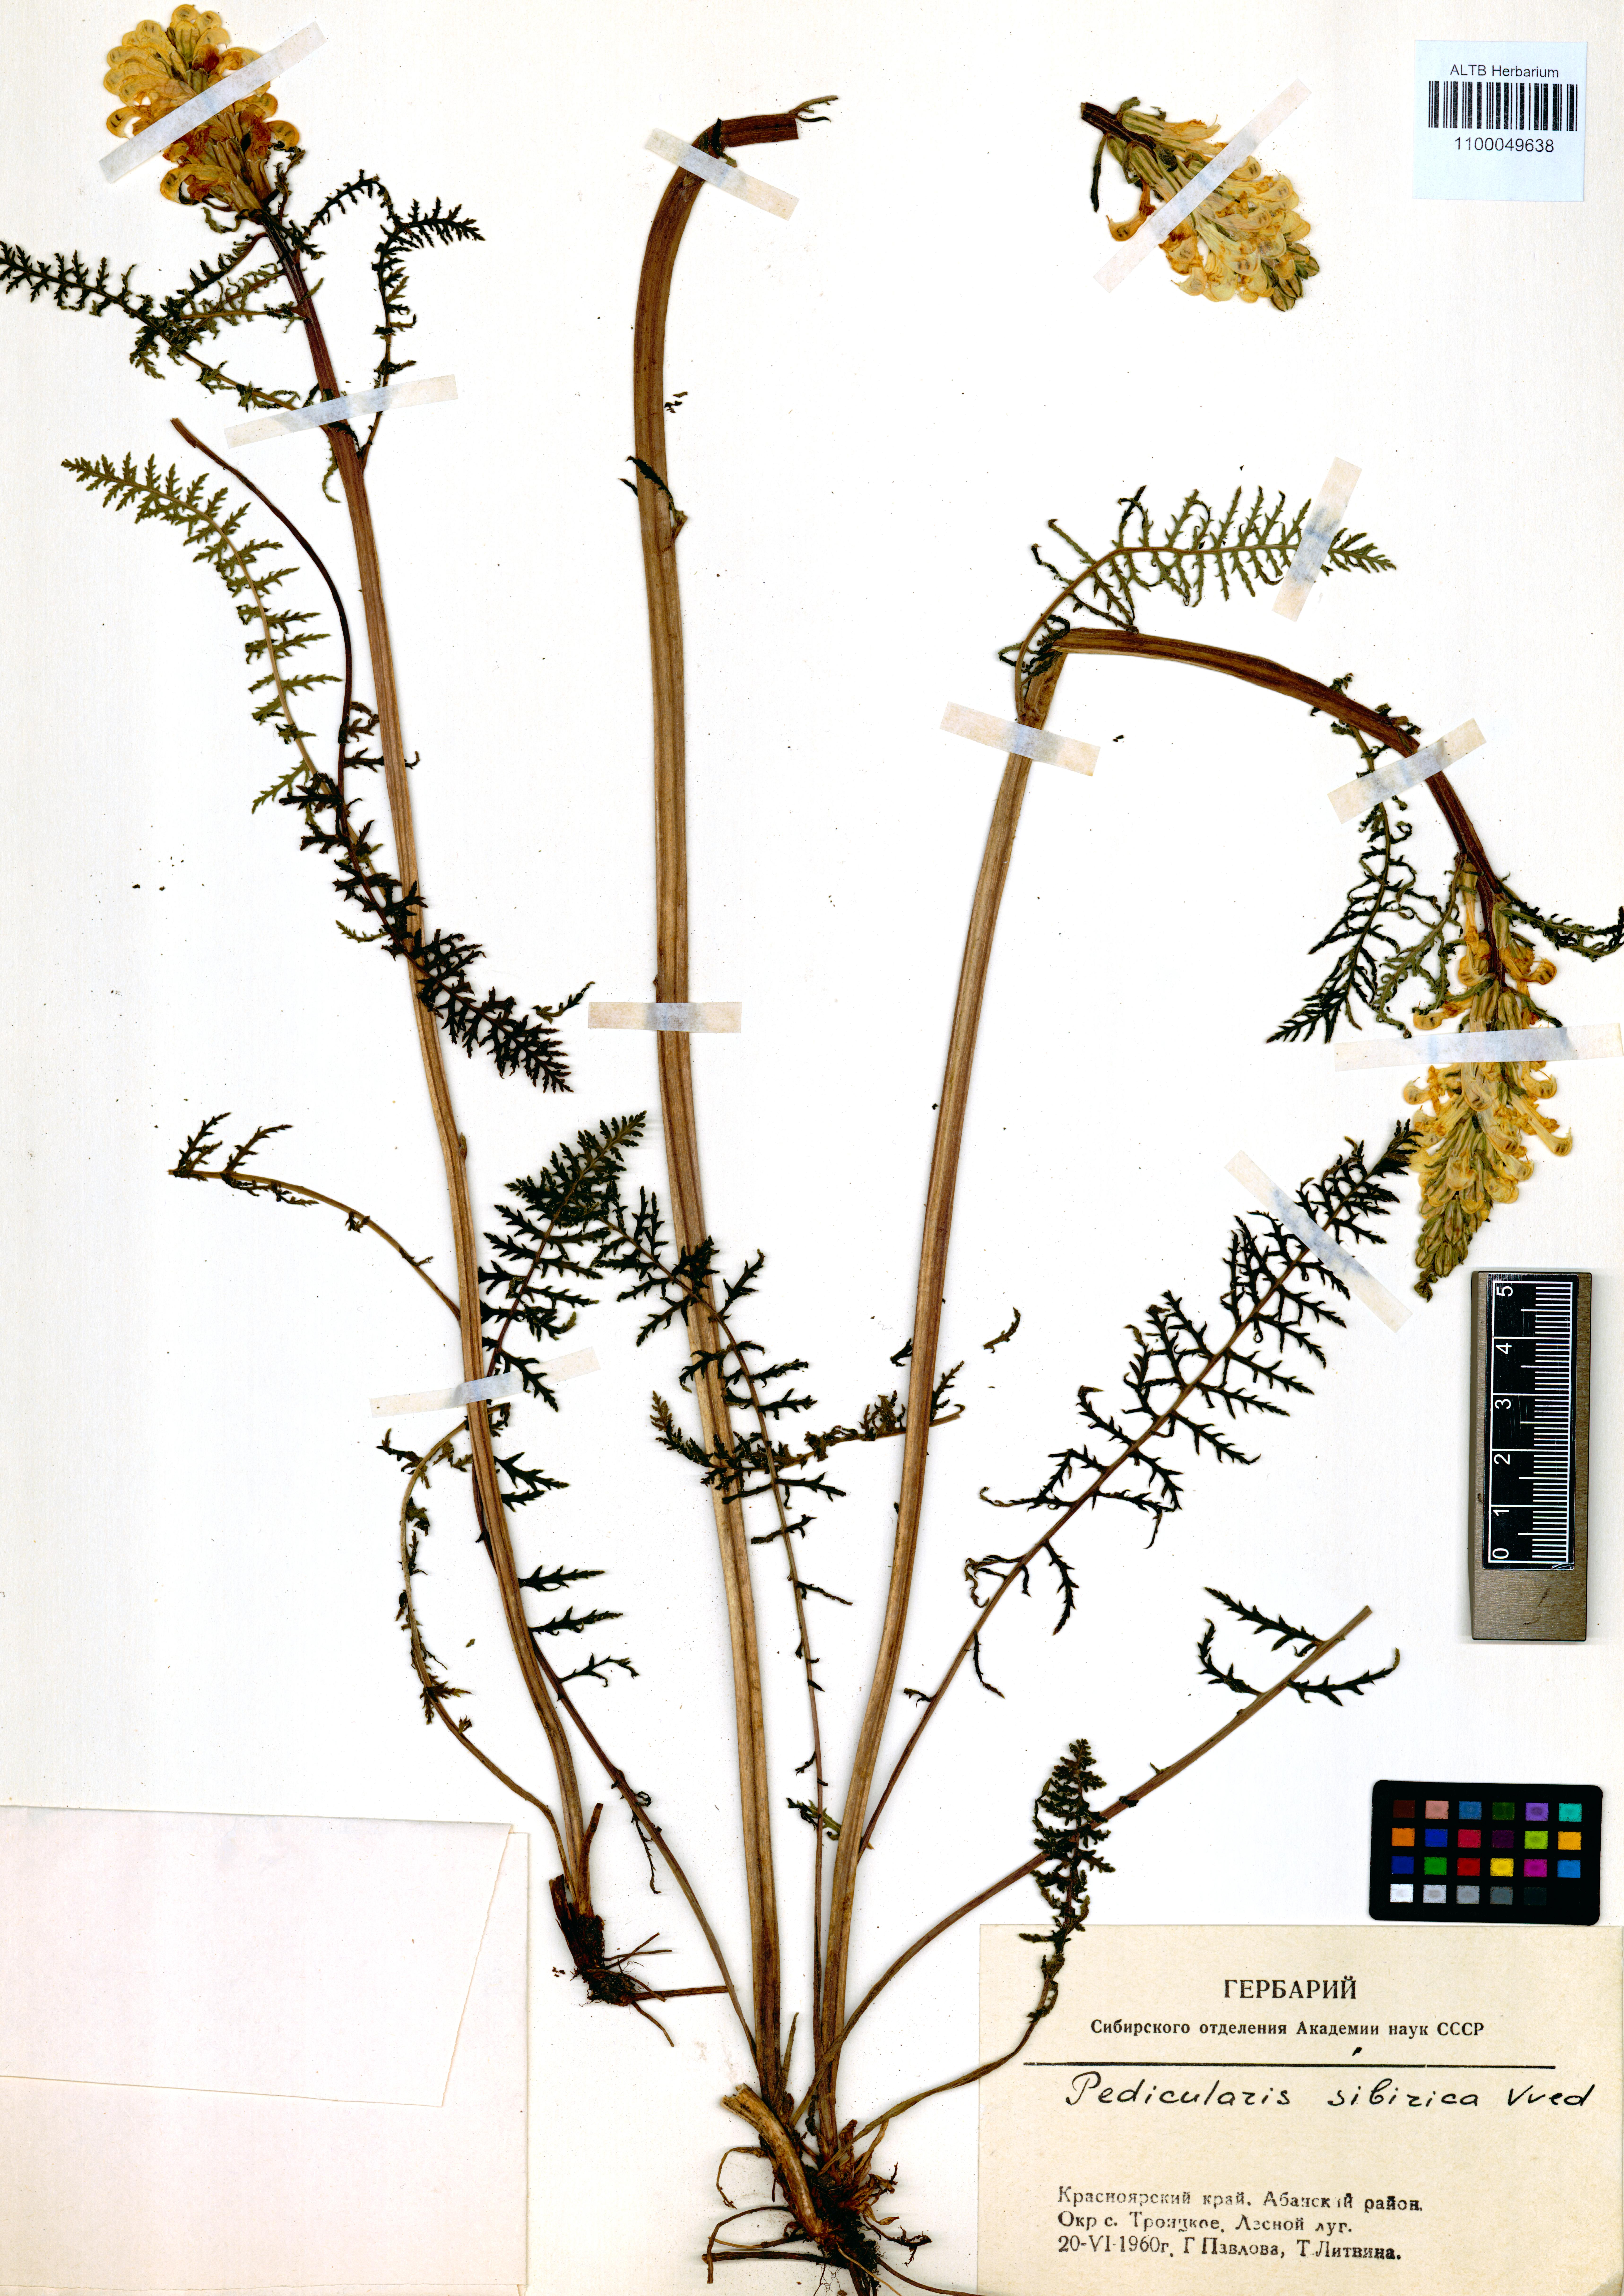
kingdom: Plantae
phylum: Tracheophyta
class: Magnoliopsida
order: Lamiales
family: Orobanchaceae
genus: Pedicularis
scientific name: Pedicularis sibirica
